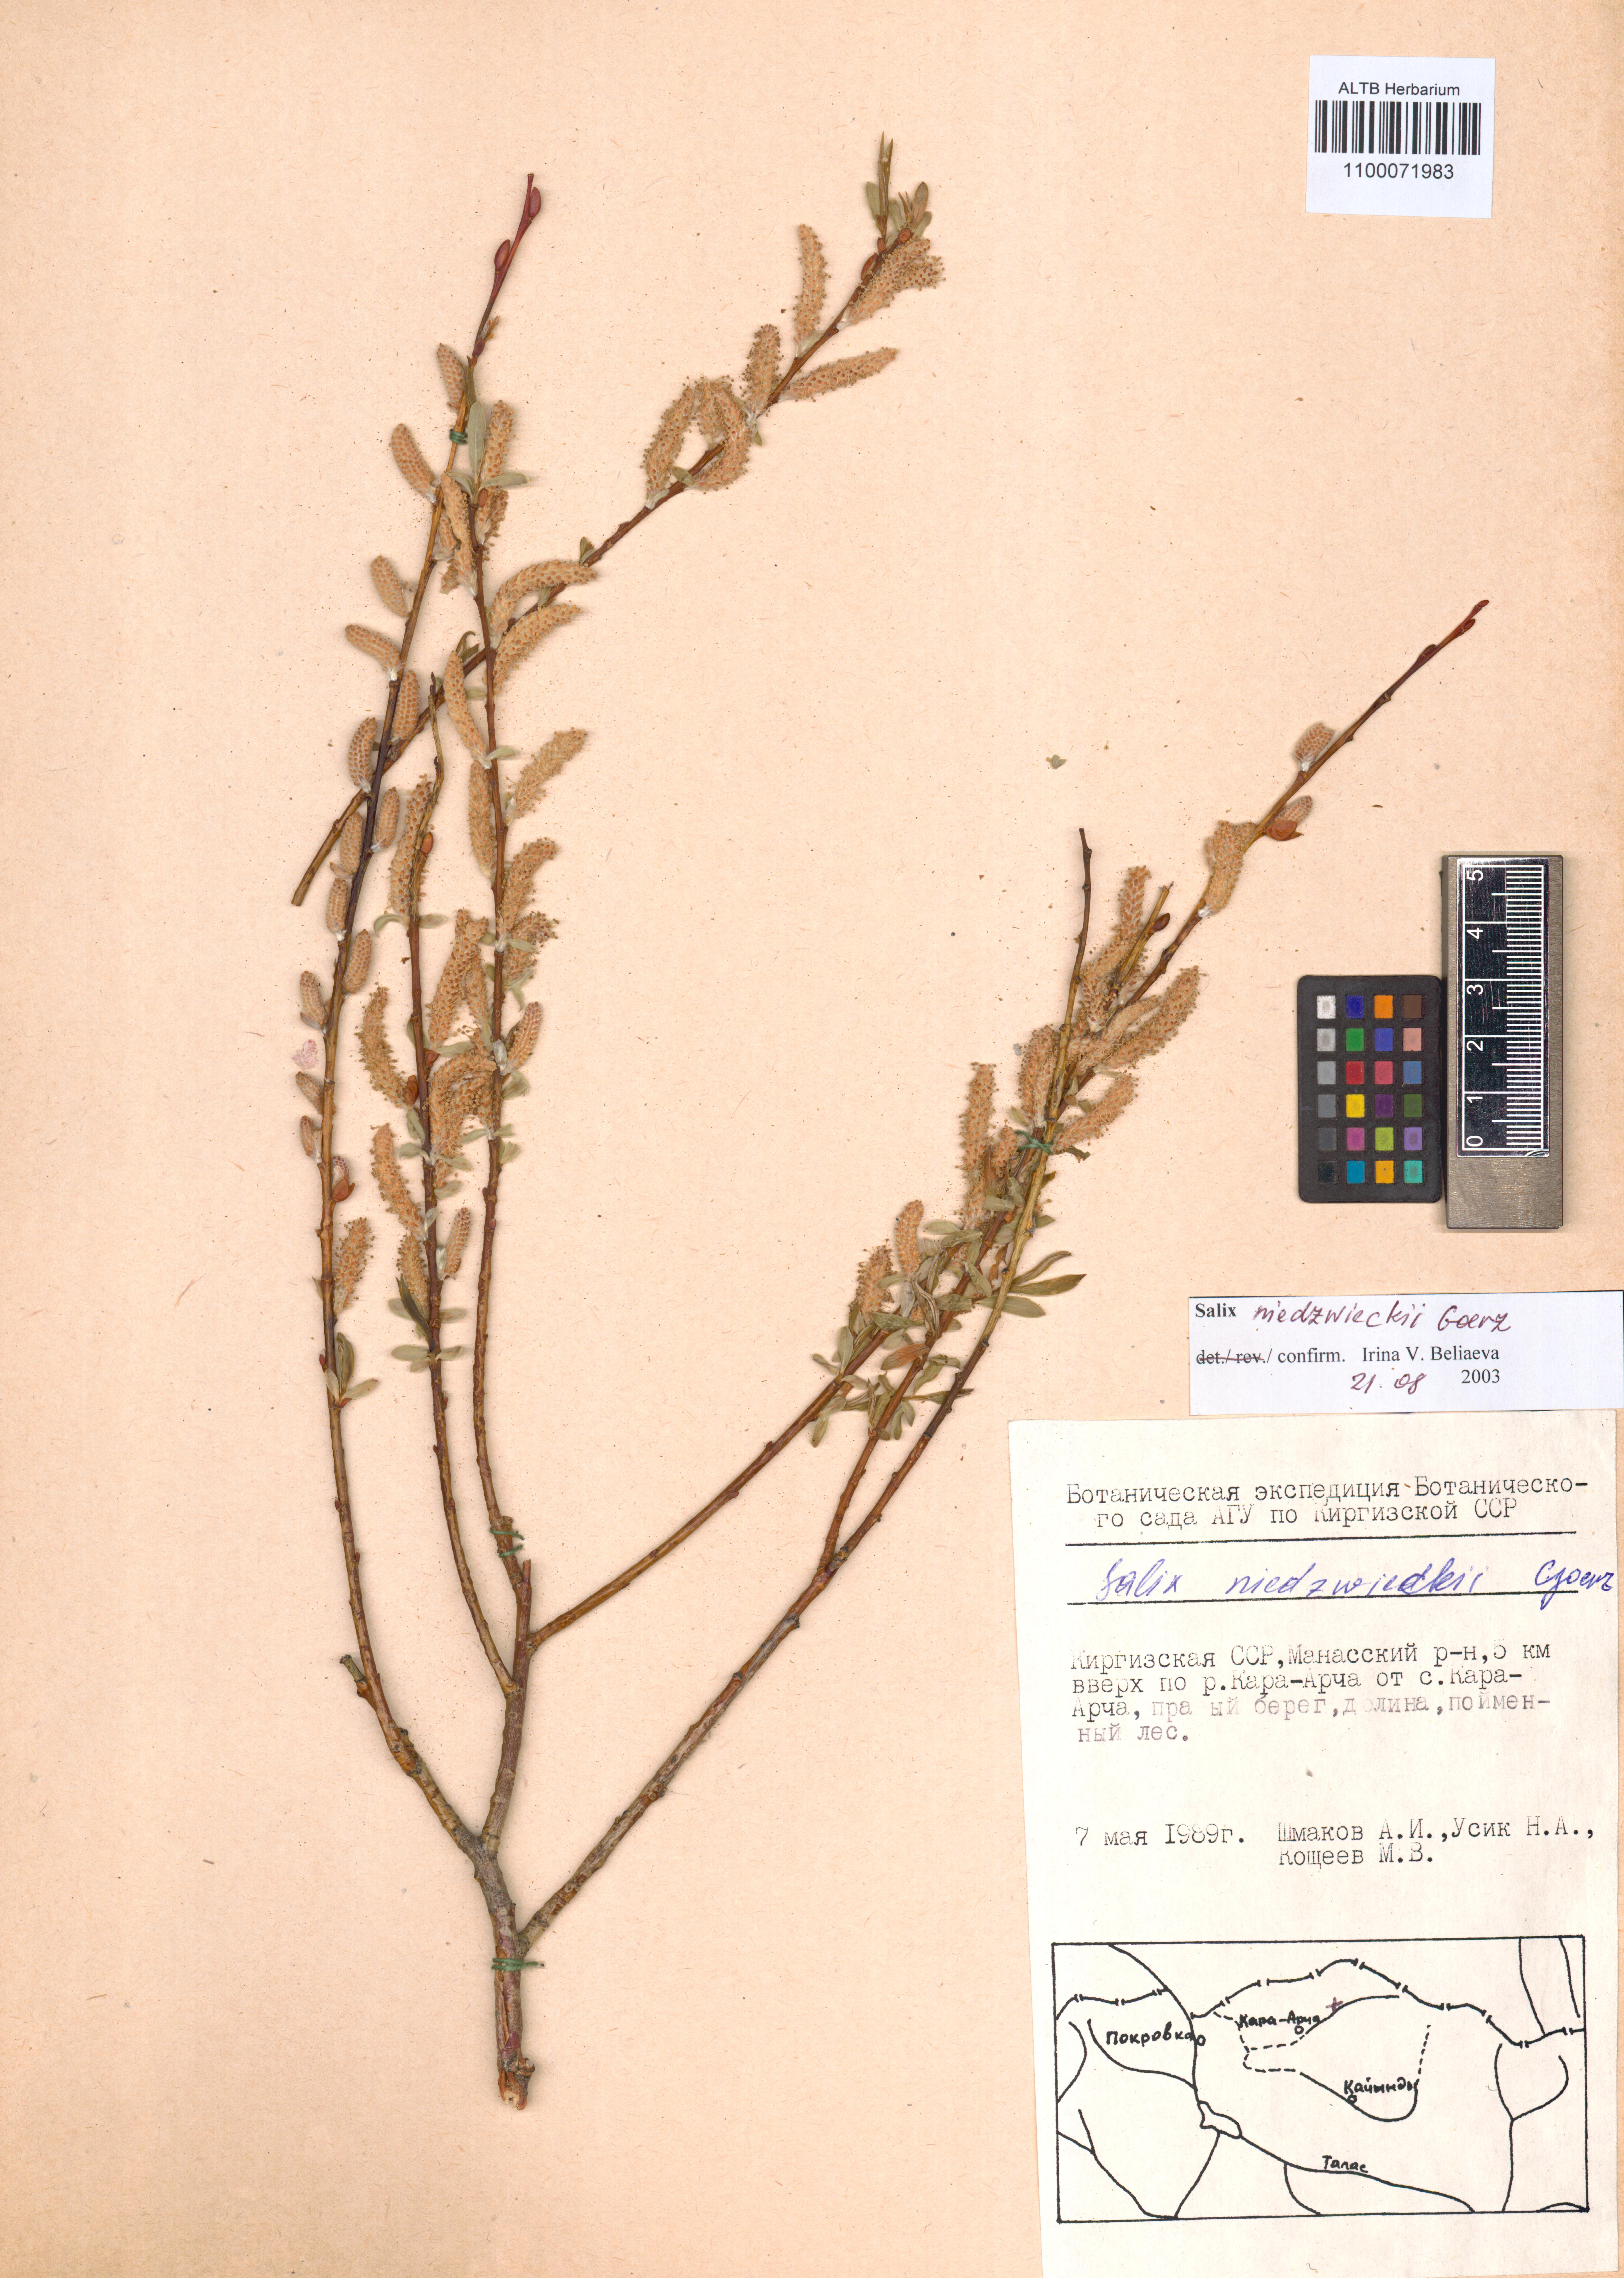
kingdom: Plantae
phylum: Tracheophyta
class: Magnoliopsida
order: Malpighiales
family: Salicaceae
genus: Salix
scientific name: Salix capusii
